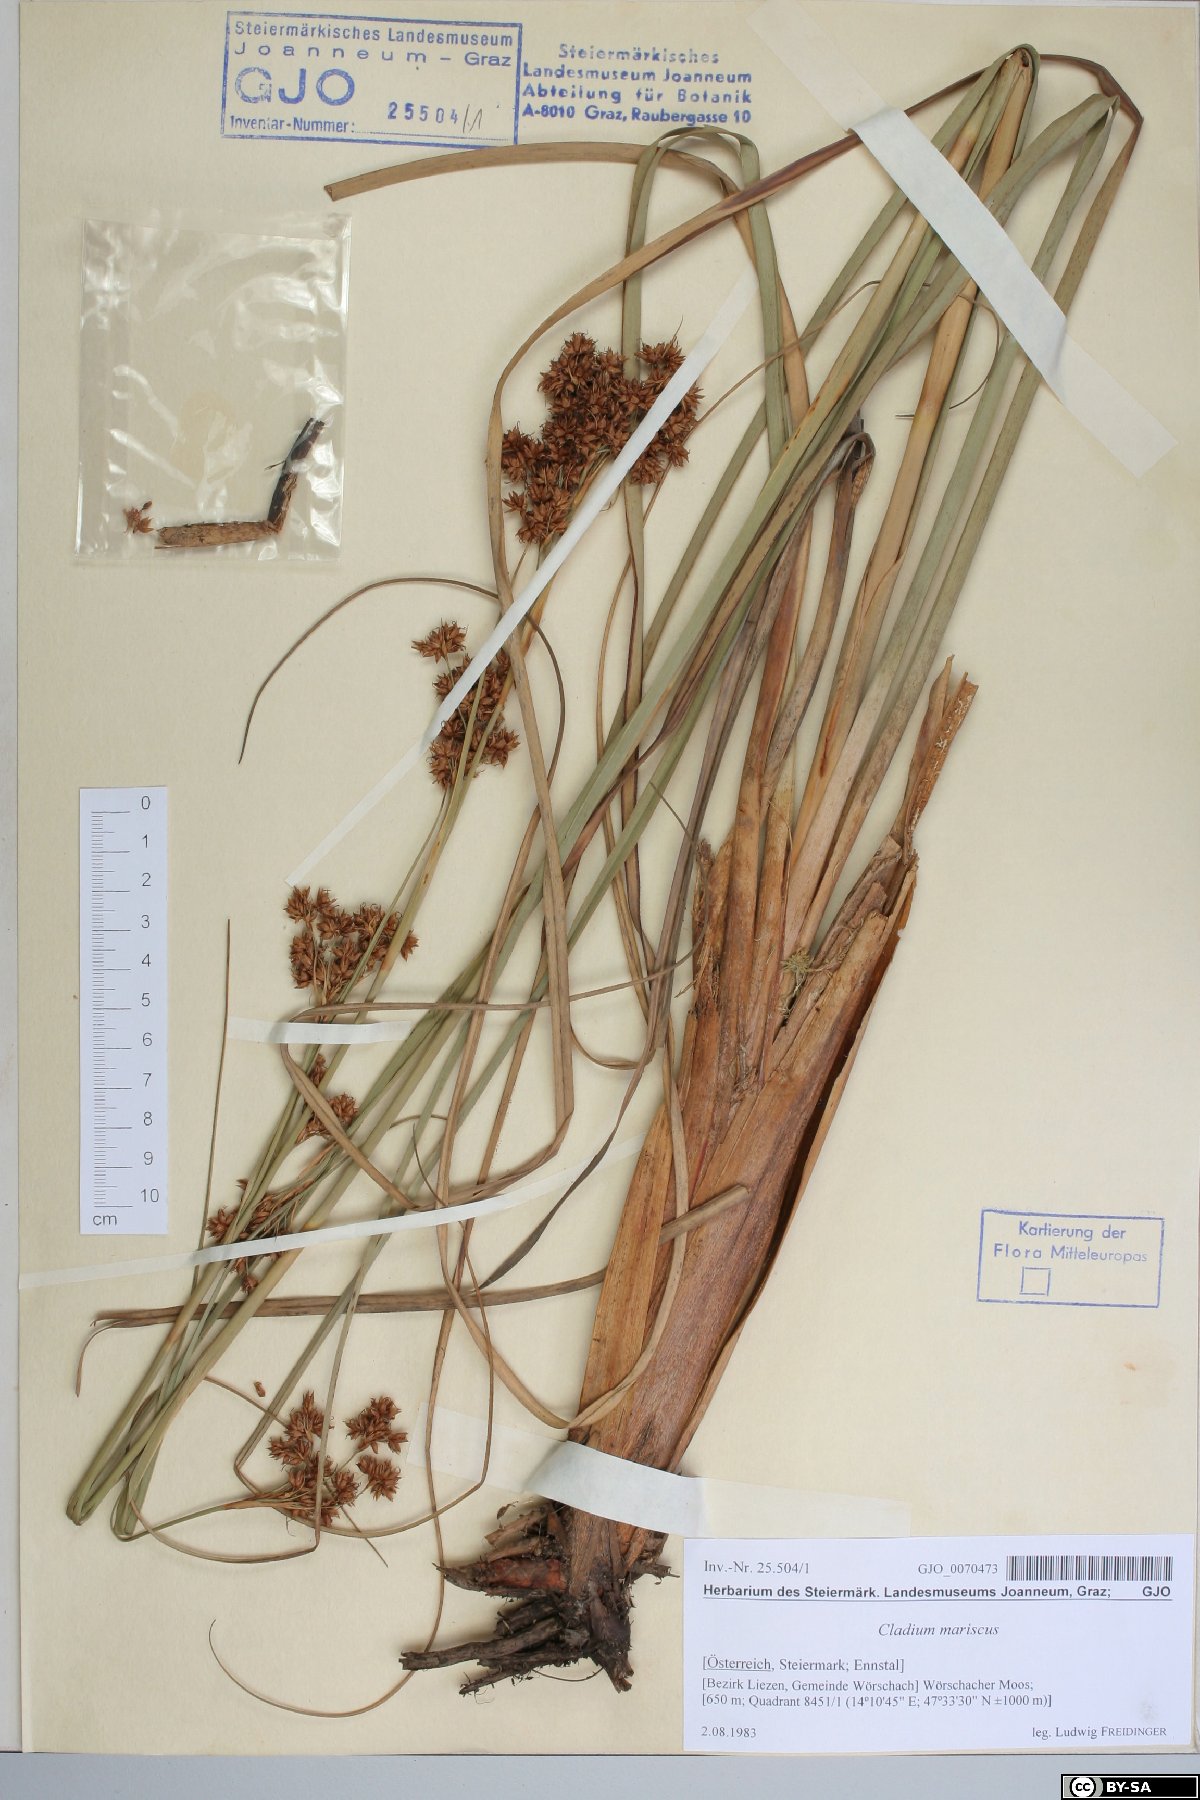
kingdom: Plantae
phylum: Tracheophyta
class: Liliopsida
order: Poales
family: Cyperaceae
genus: Cladium
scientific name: Cladium mariscus
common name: Great fen-sedge
